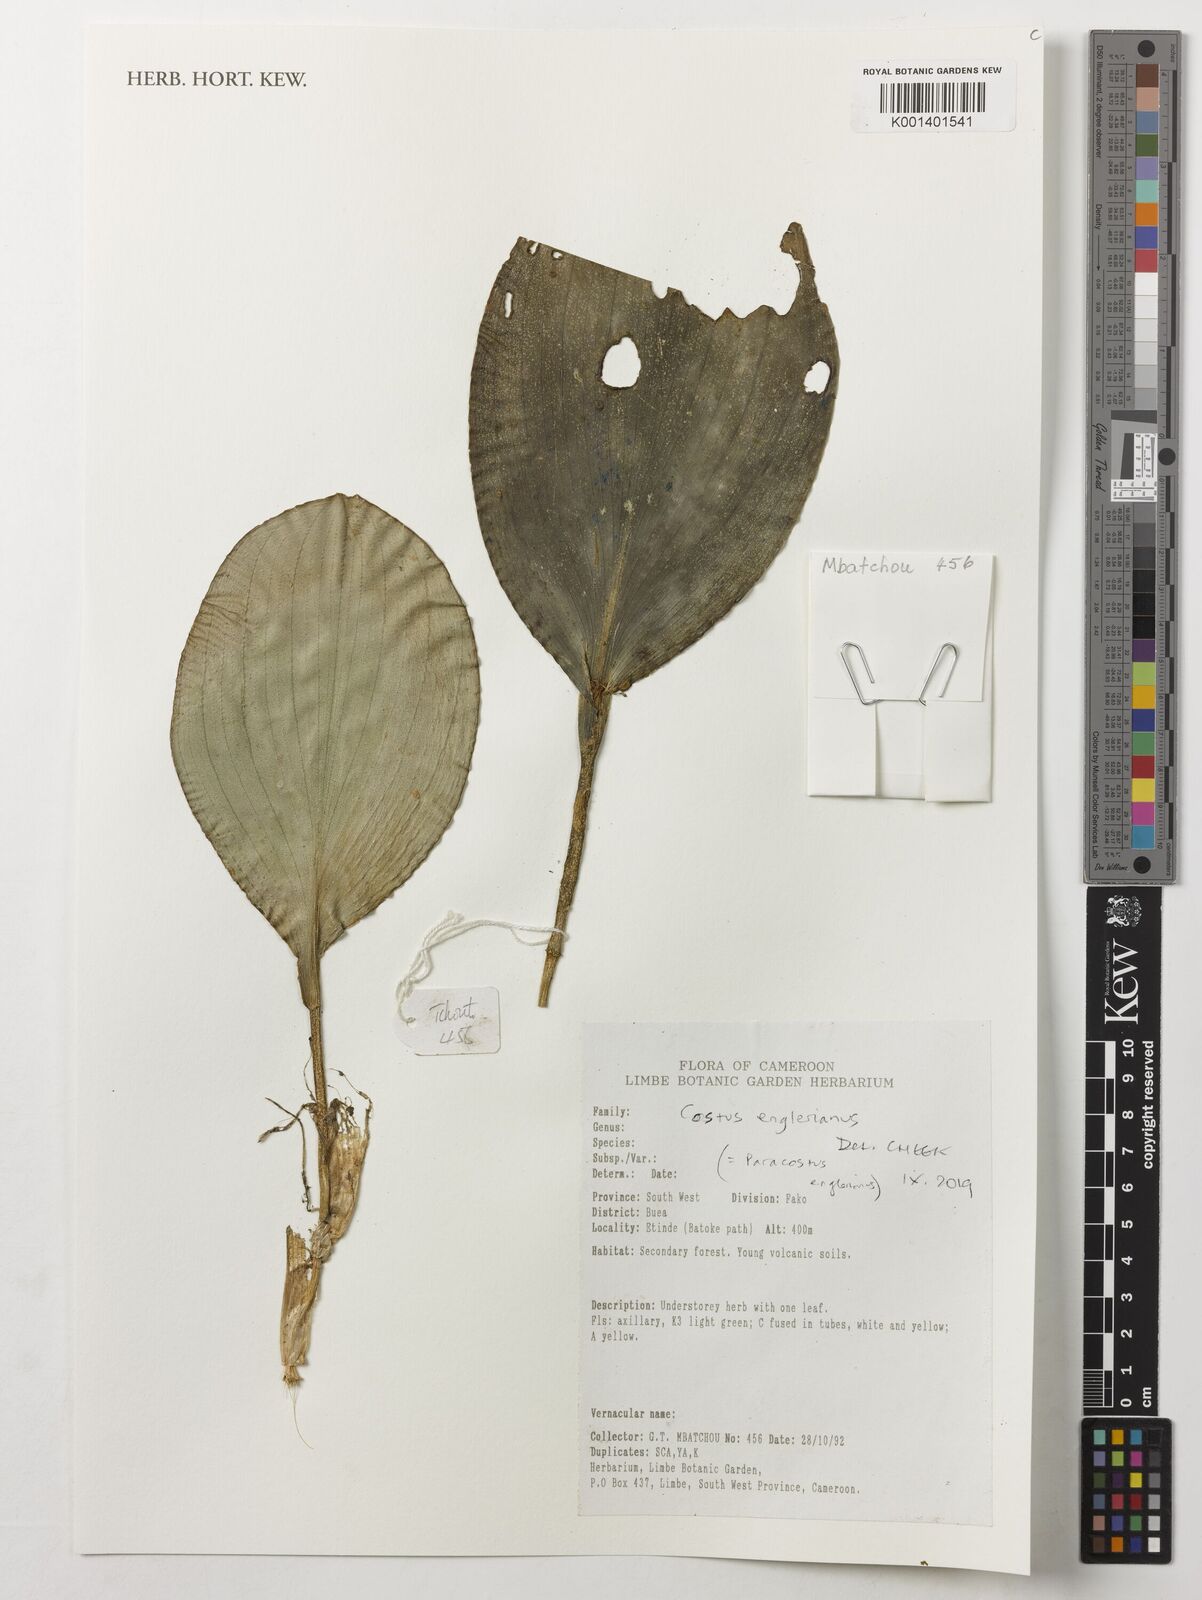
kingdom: Plantae
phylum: Tracheophyta
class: Liliopsida
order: Zingiberales
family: Costaceae
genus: Paracostus
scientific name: Paracostus englerianus
